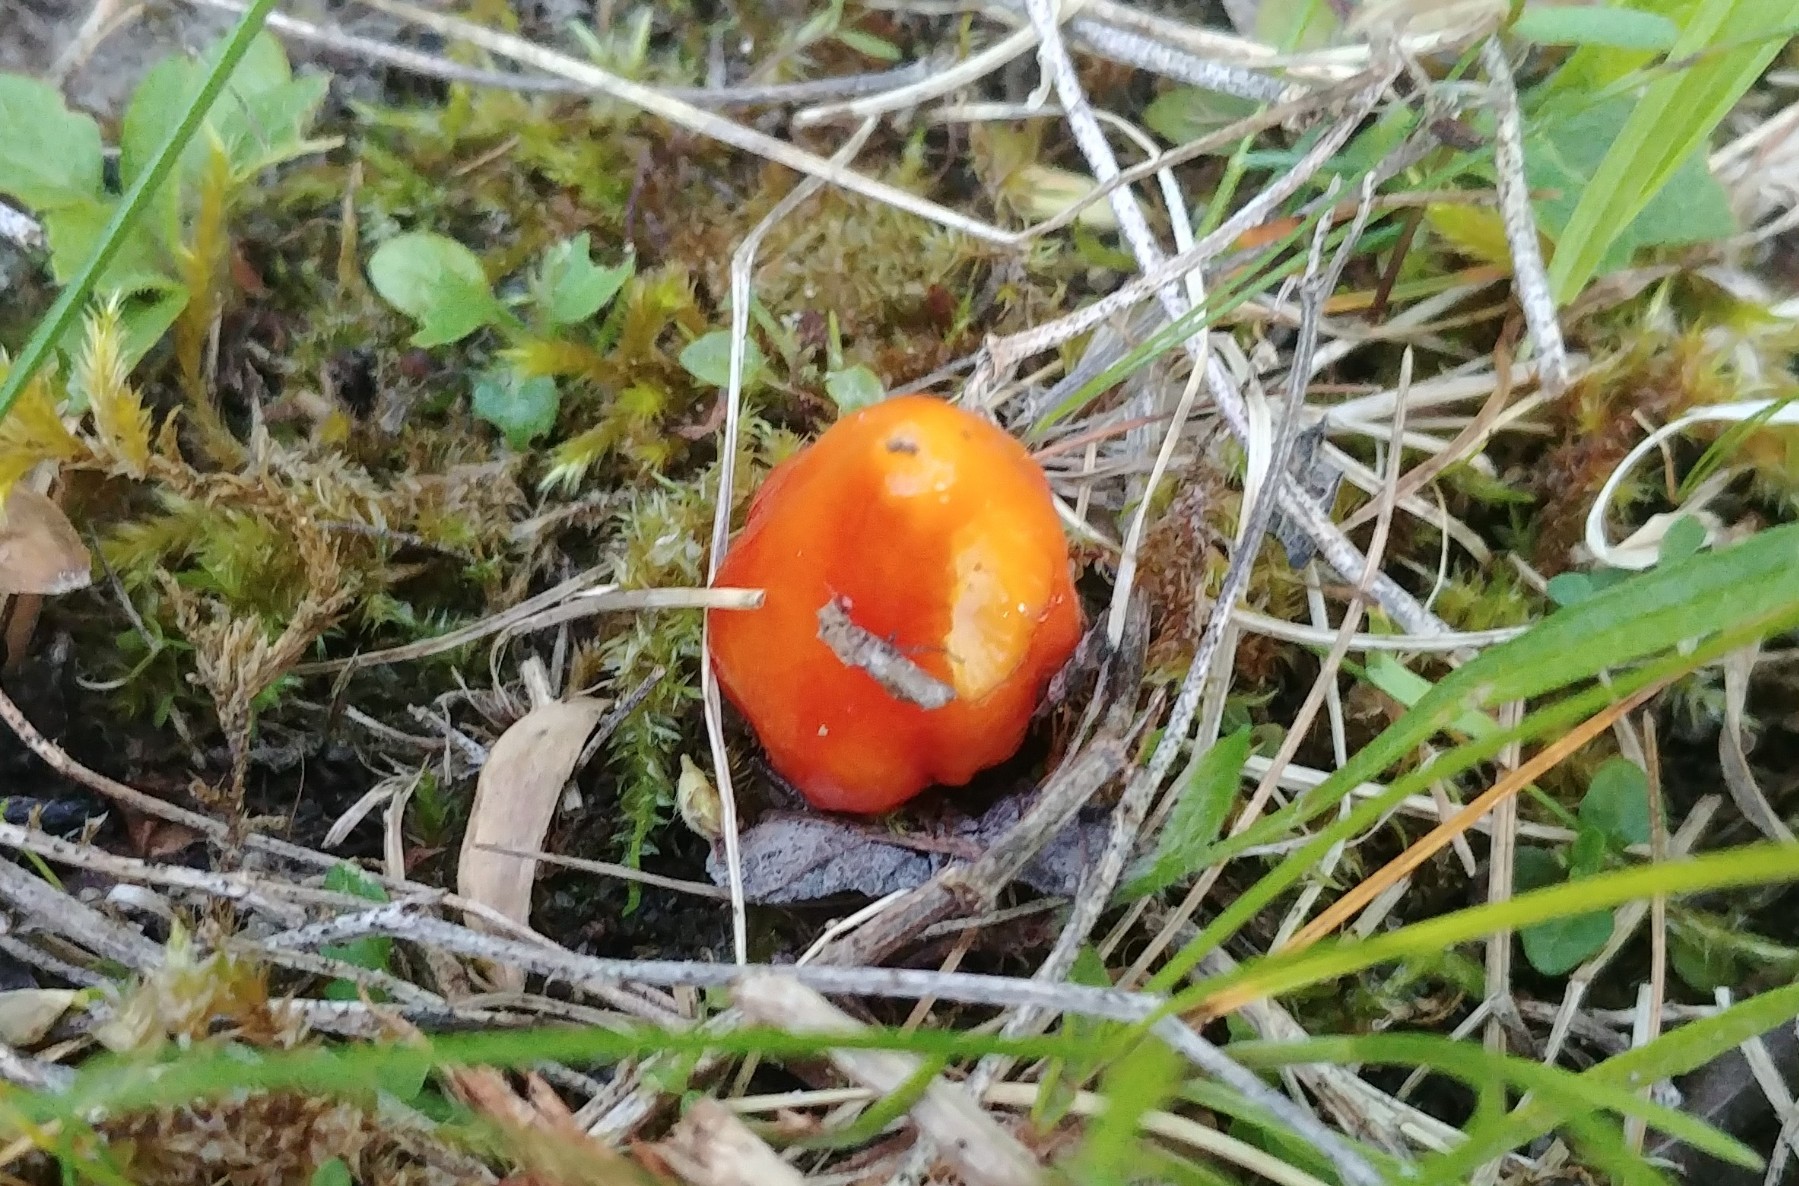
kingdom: Fungi
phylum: Basidiomycota
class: Agaricomycetes
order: Agaricales
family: Hygrophoraceae
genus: Hygrocybe
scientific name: Hygrocybe acutoconica
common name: Konrads vokshat
